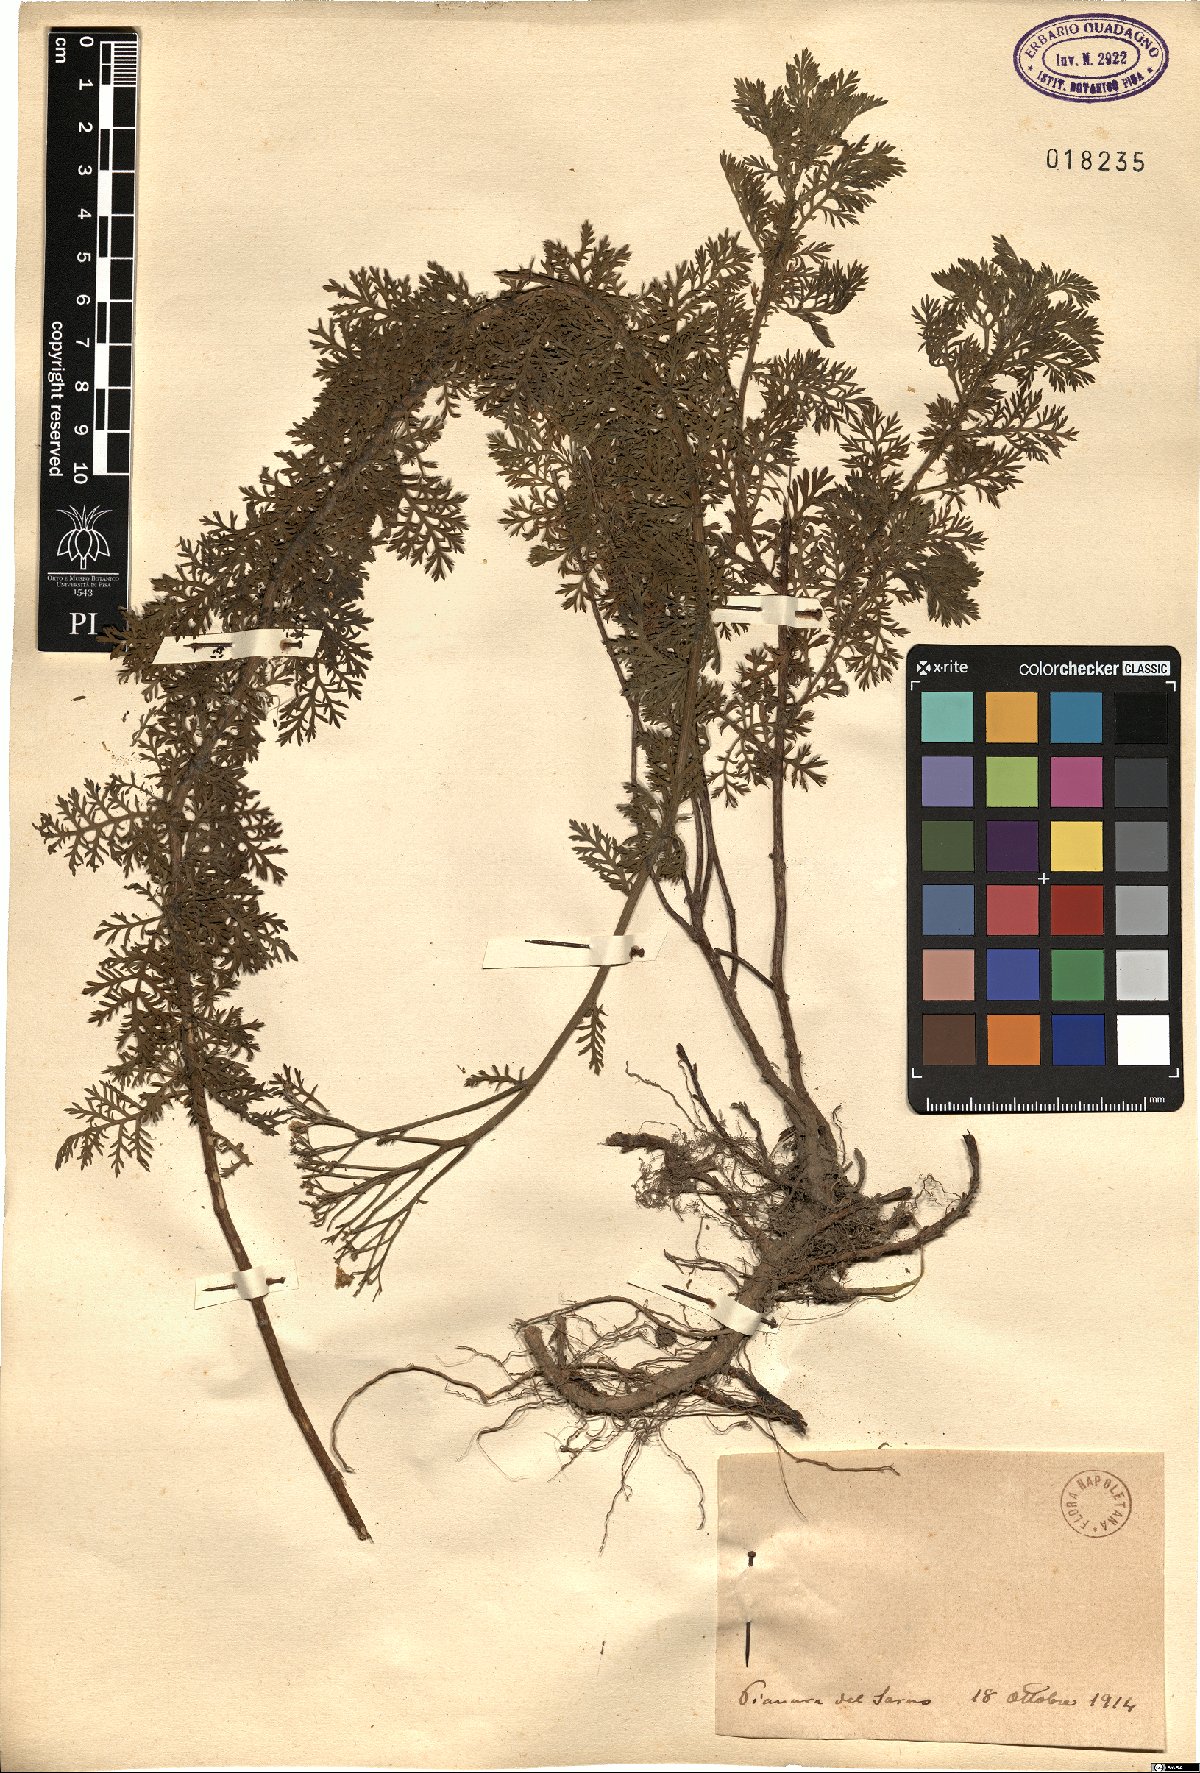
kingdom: Plantae
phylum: Tracheophyta
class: Magnoliopsida
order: Asterales
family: Asteraceae
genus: Achillea
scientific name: Achillea
